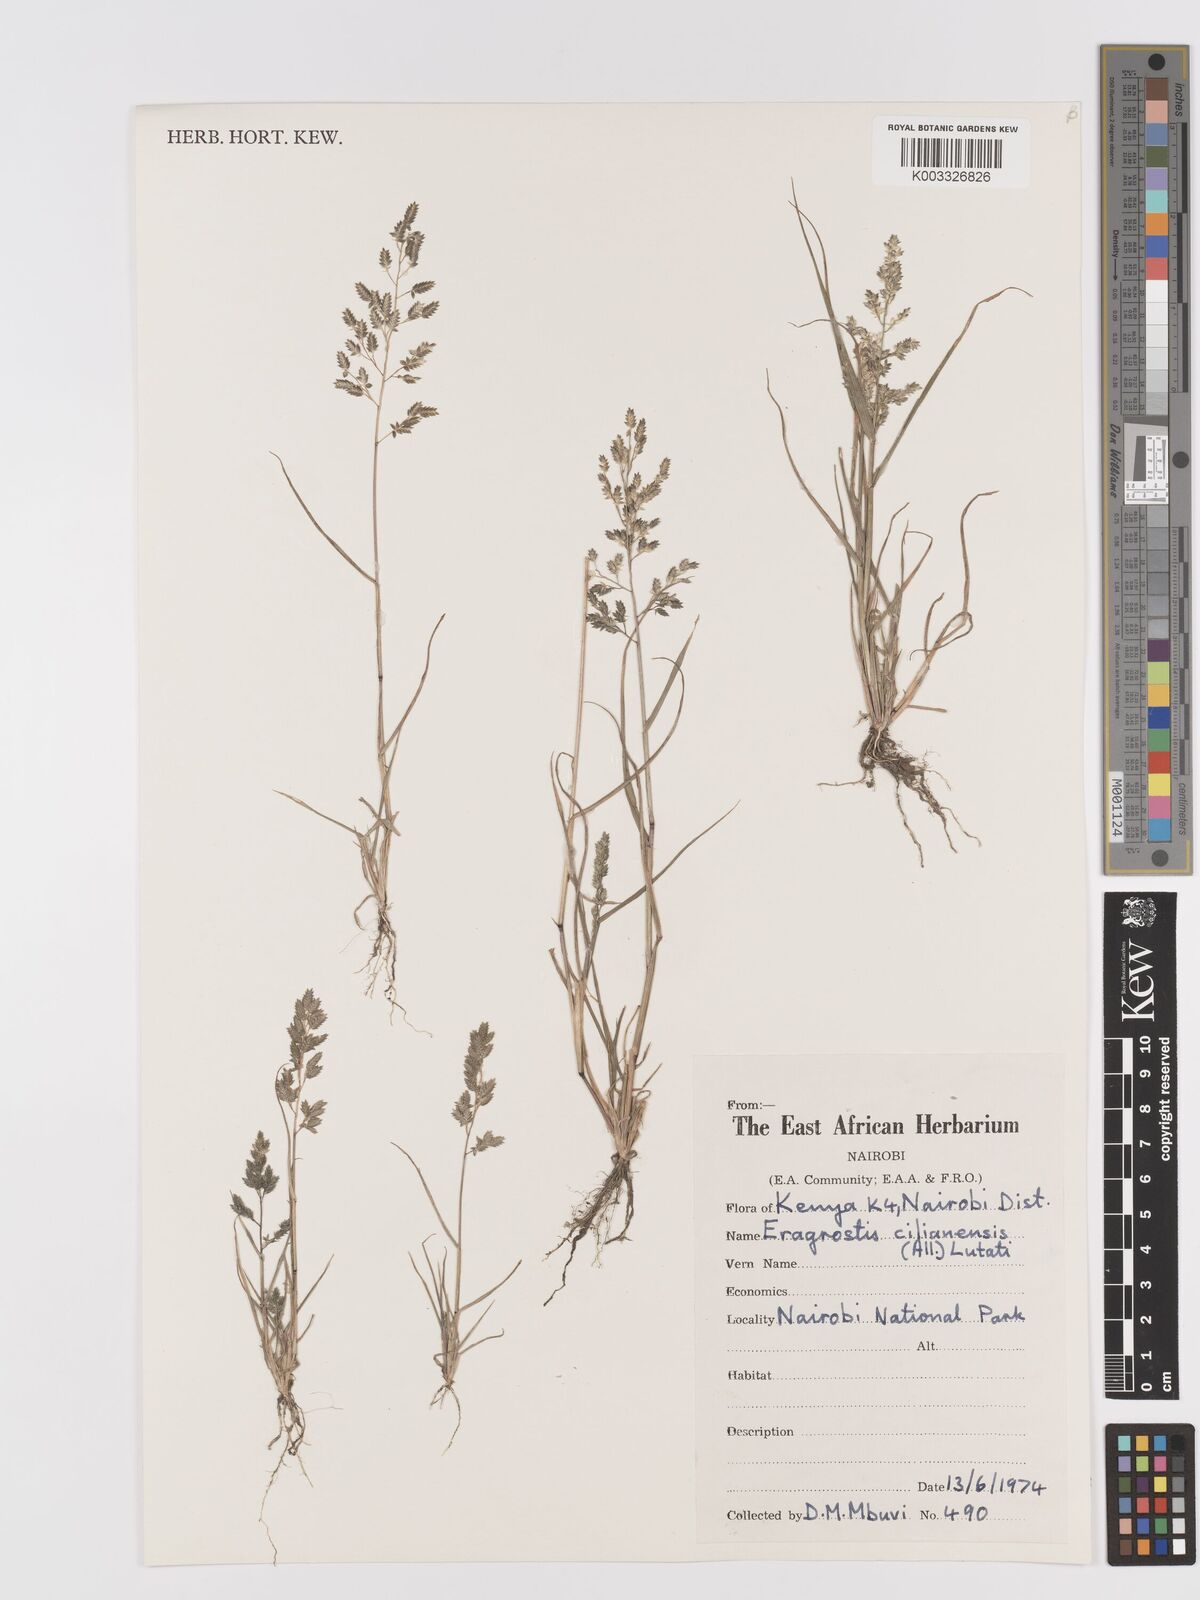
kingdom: Plantae
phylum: Tracheophyta
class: Liliopsida
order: Poales
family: Poaceae
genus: Eragrostis
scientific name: Eragrostis cilianensis
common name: Stinkgrass
